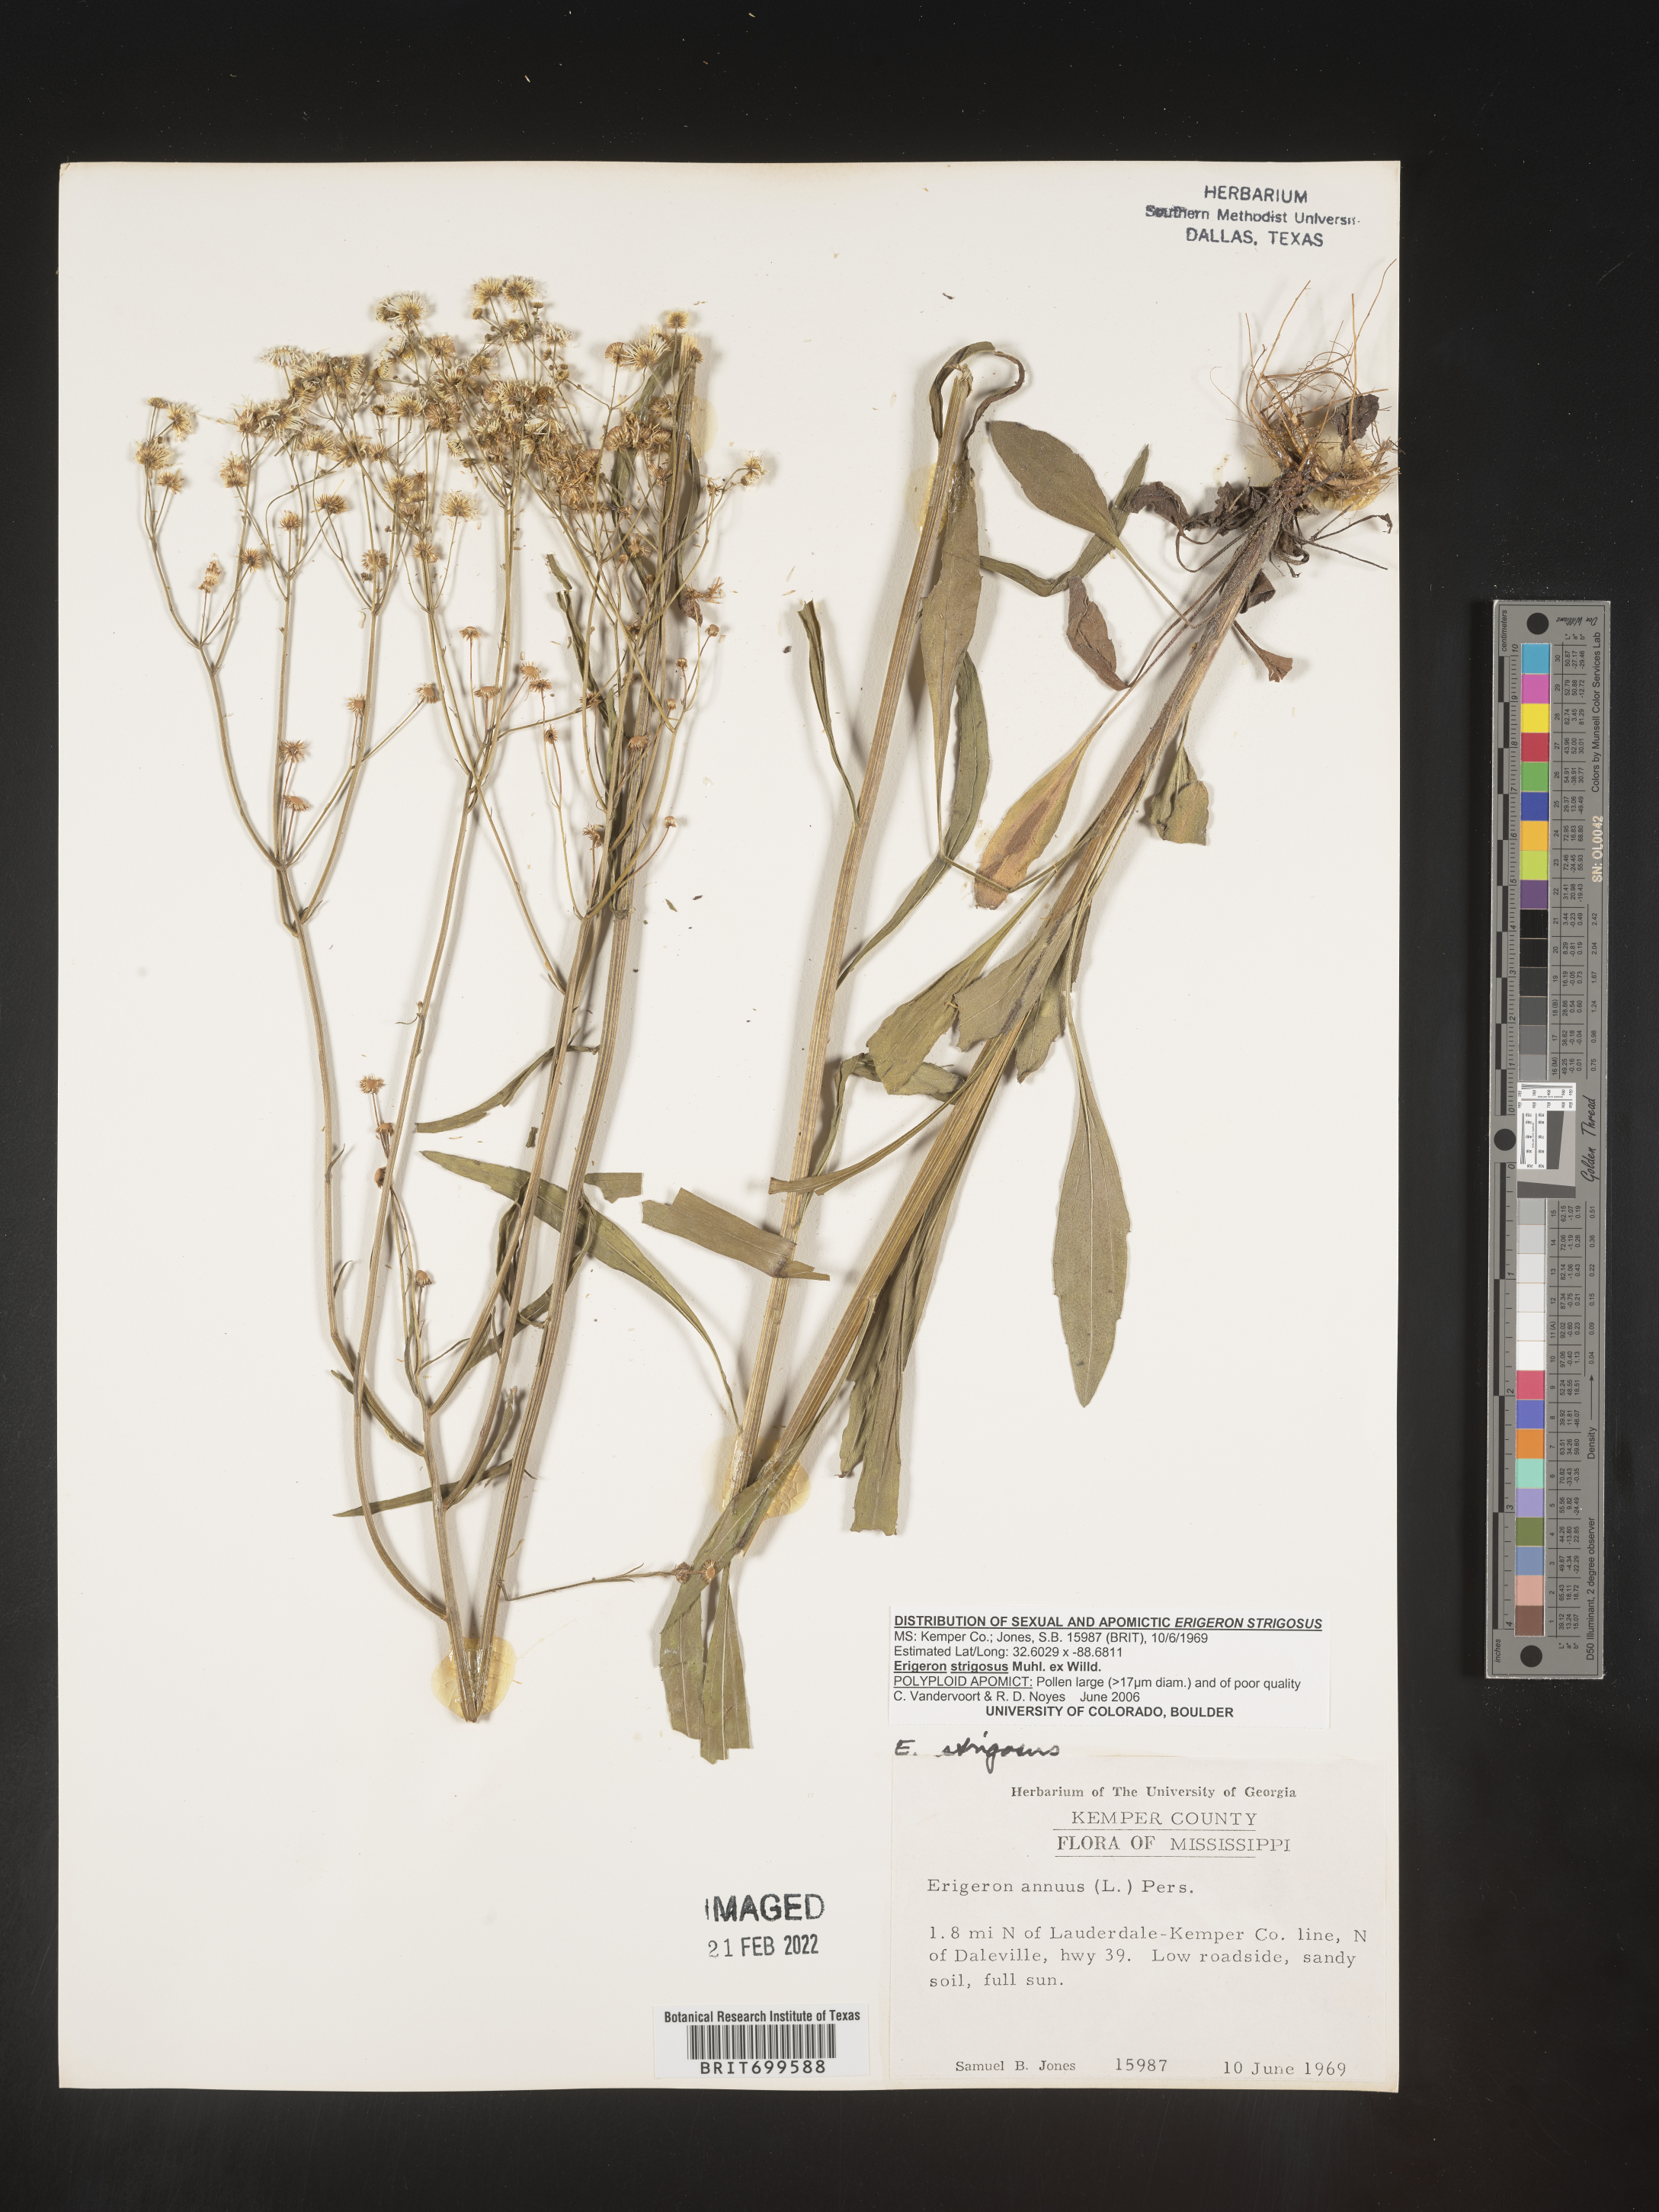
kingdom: Plantae
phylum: Tracheophyta
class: Magnoliopsida
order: Asterales
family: Asteraceae
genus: Erigeron
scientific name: Erigeron strigosus
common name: Common eastern fleabane
